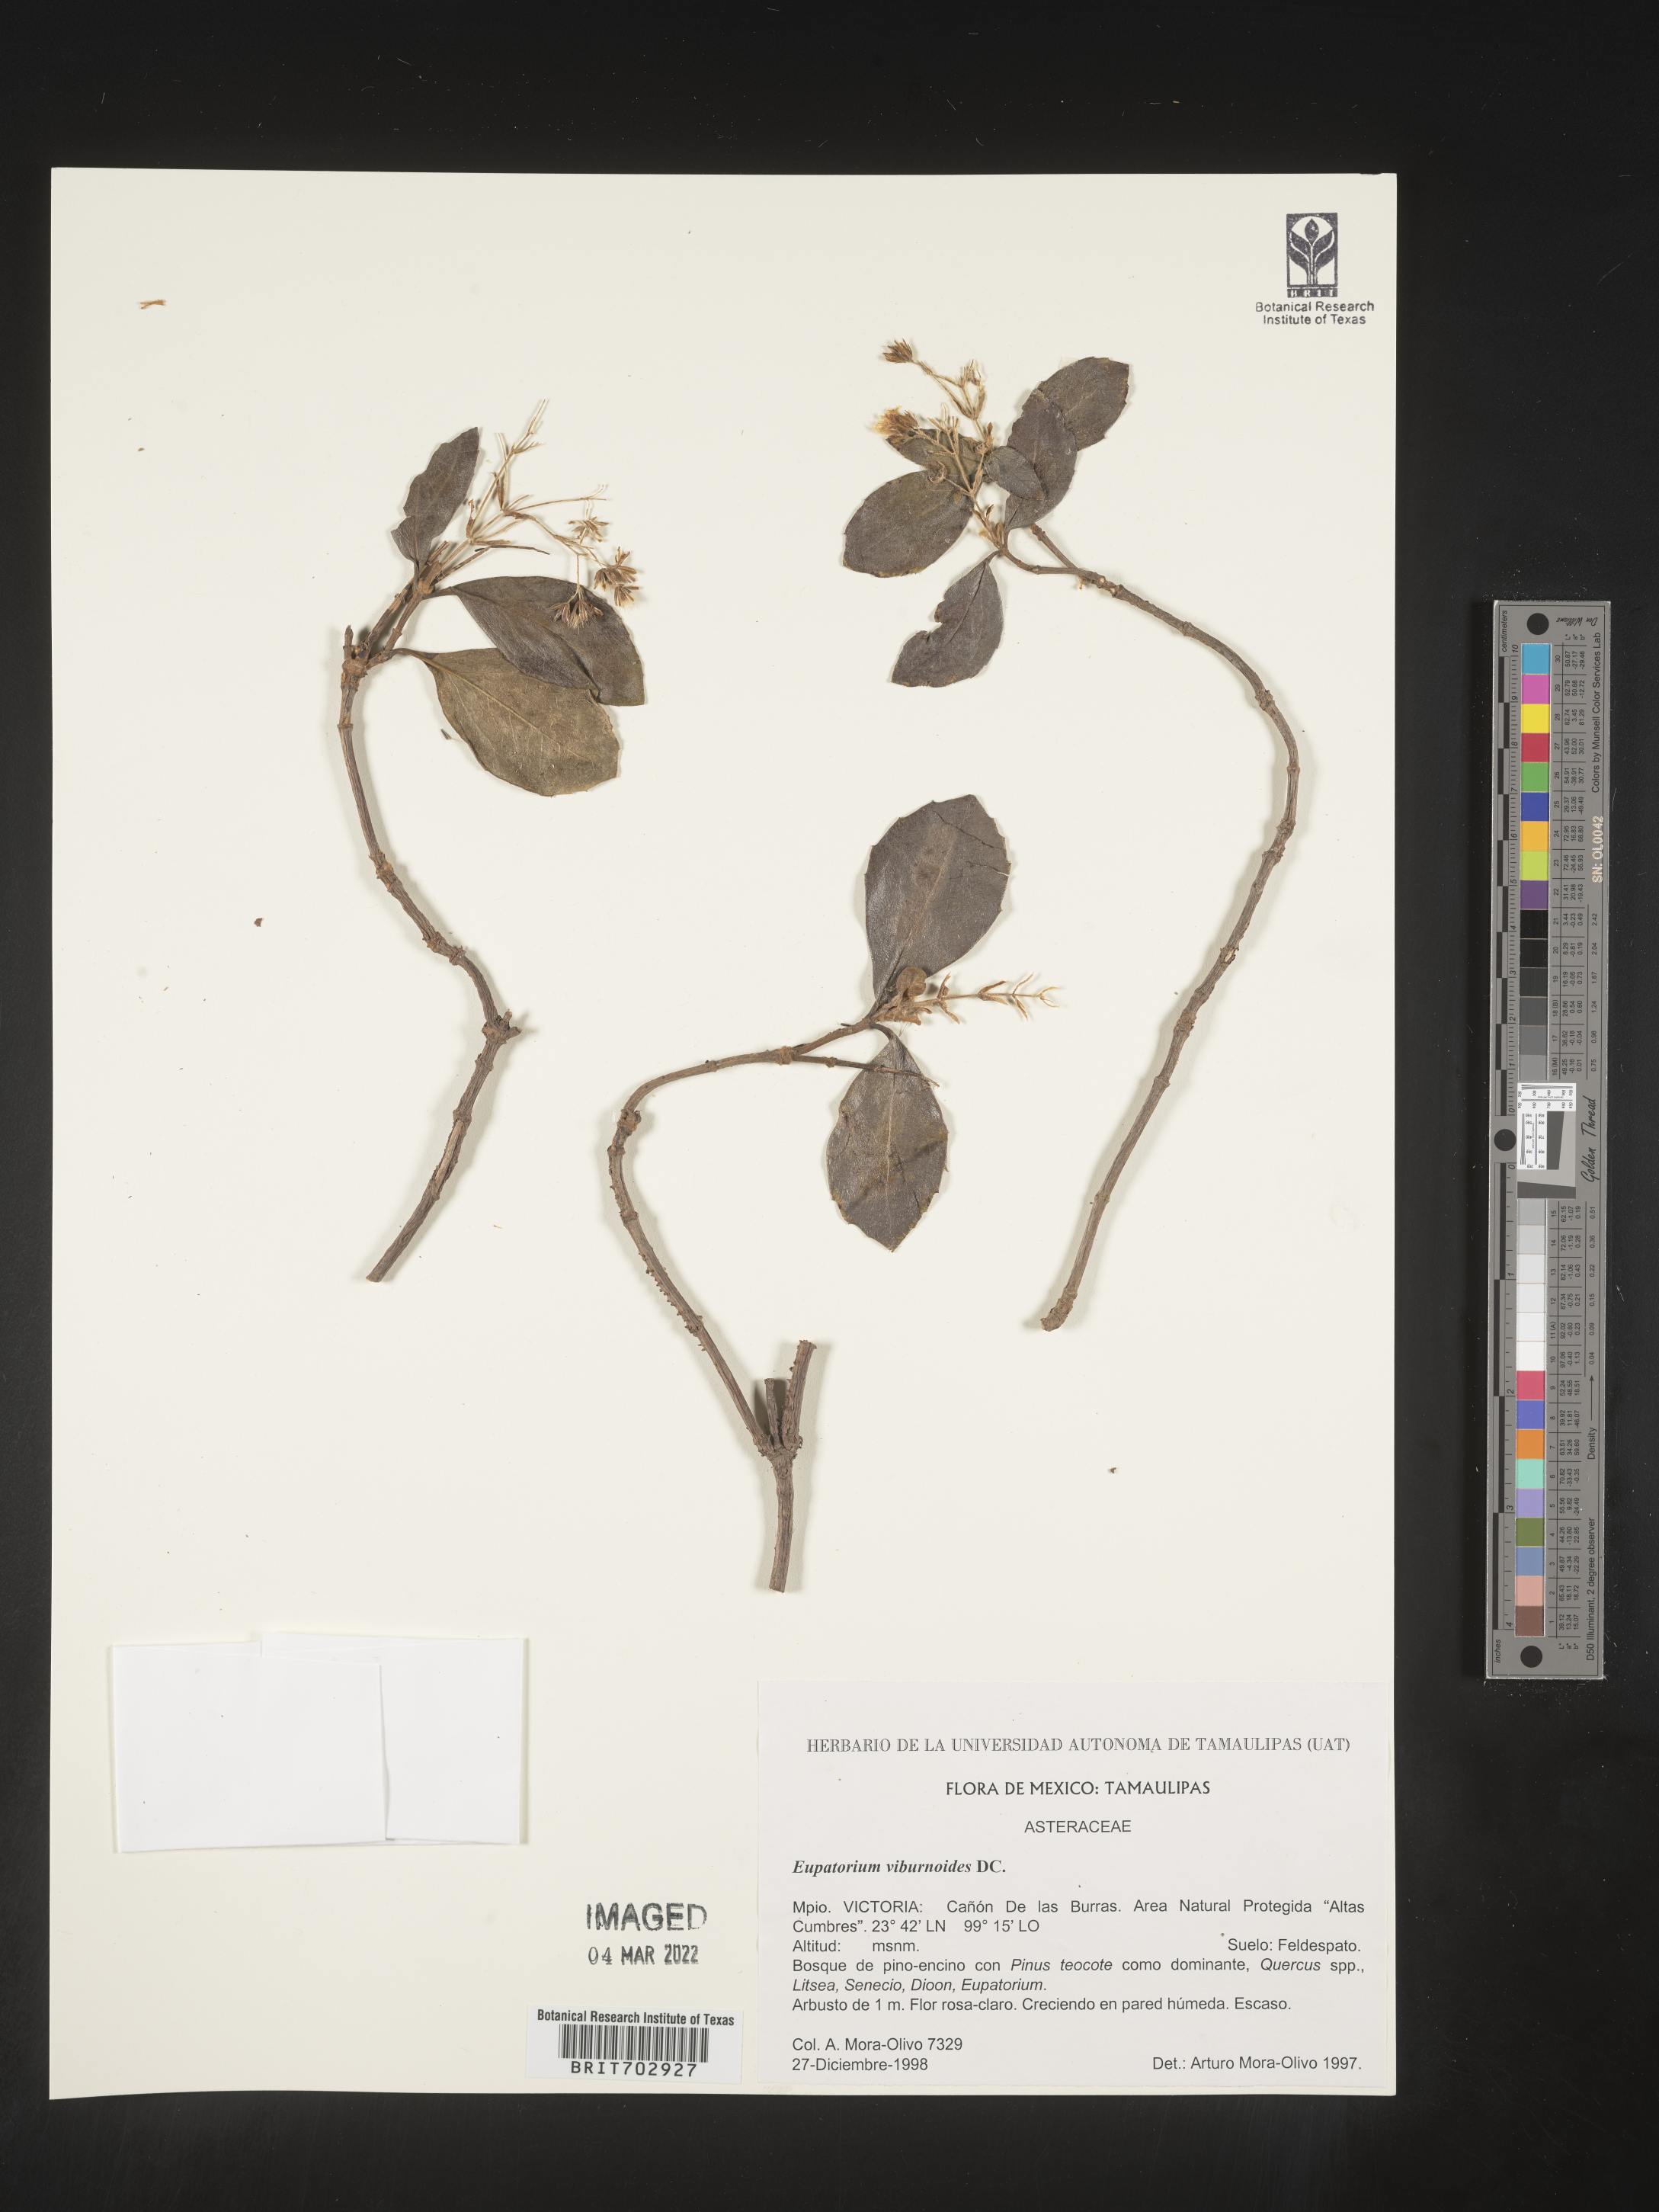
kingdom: Plantae
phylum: Tracheophyta
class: Magnoliopsida
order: Asterales
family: Asteraceae
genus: Eupatorium
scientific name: Eupatorium
